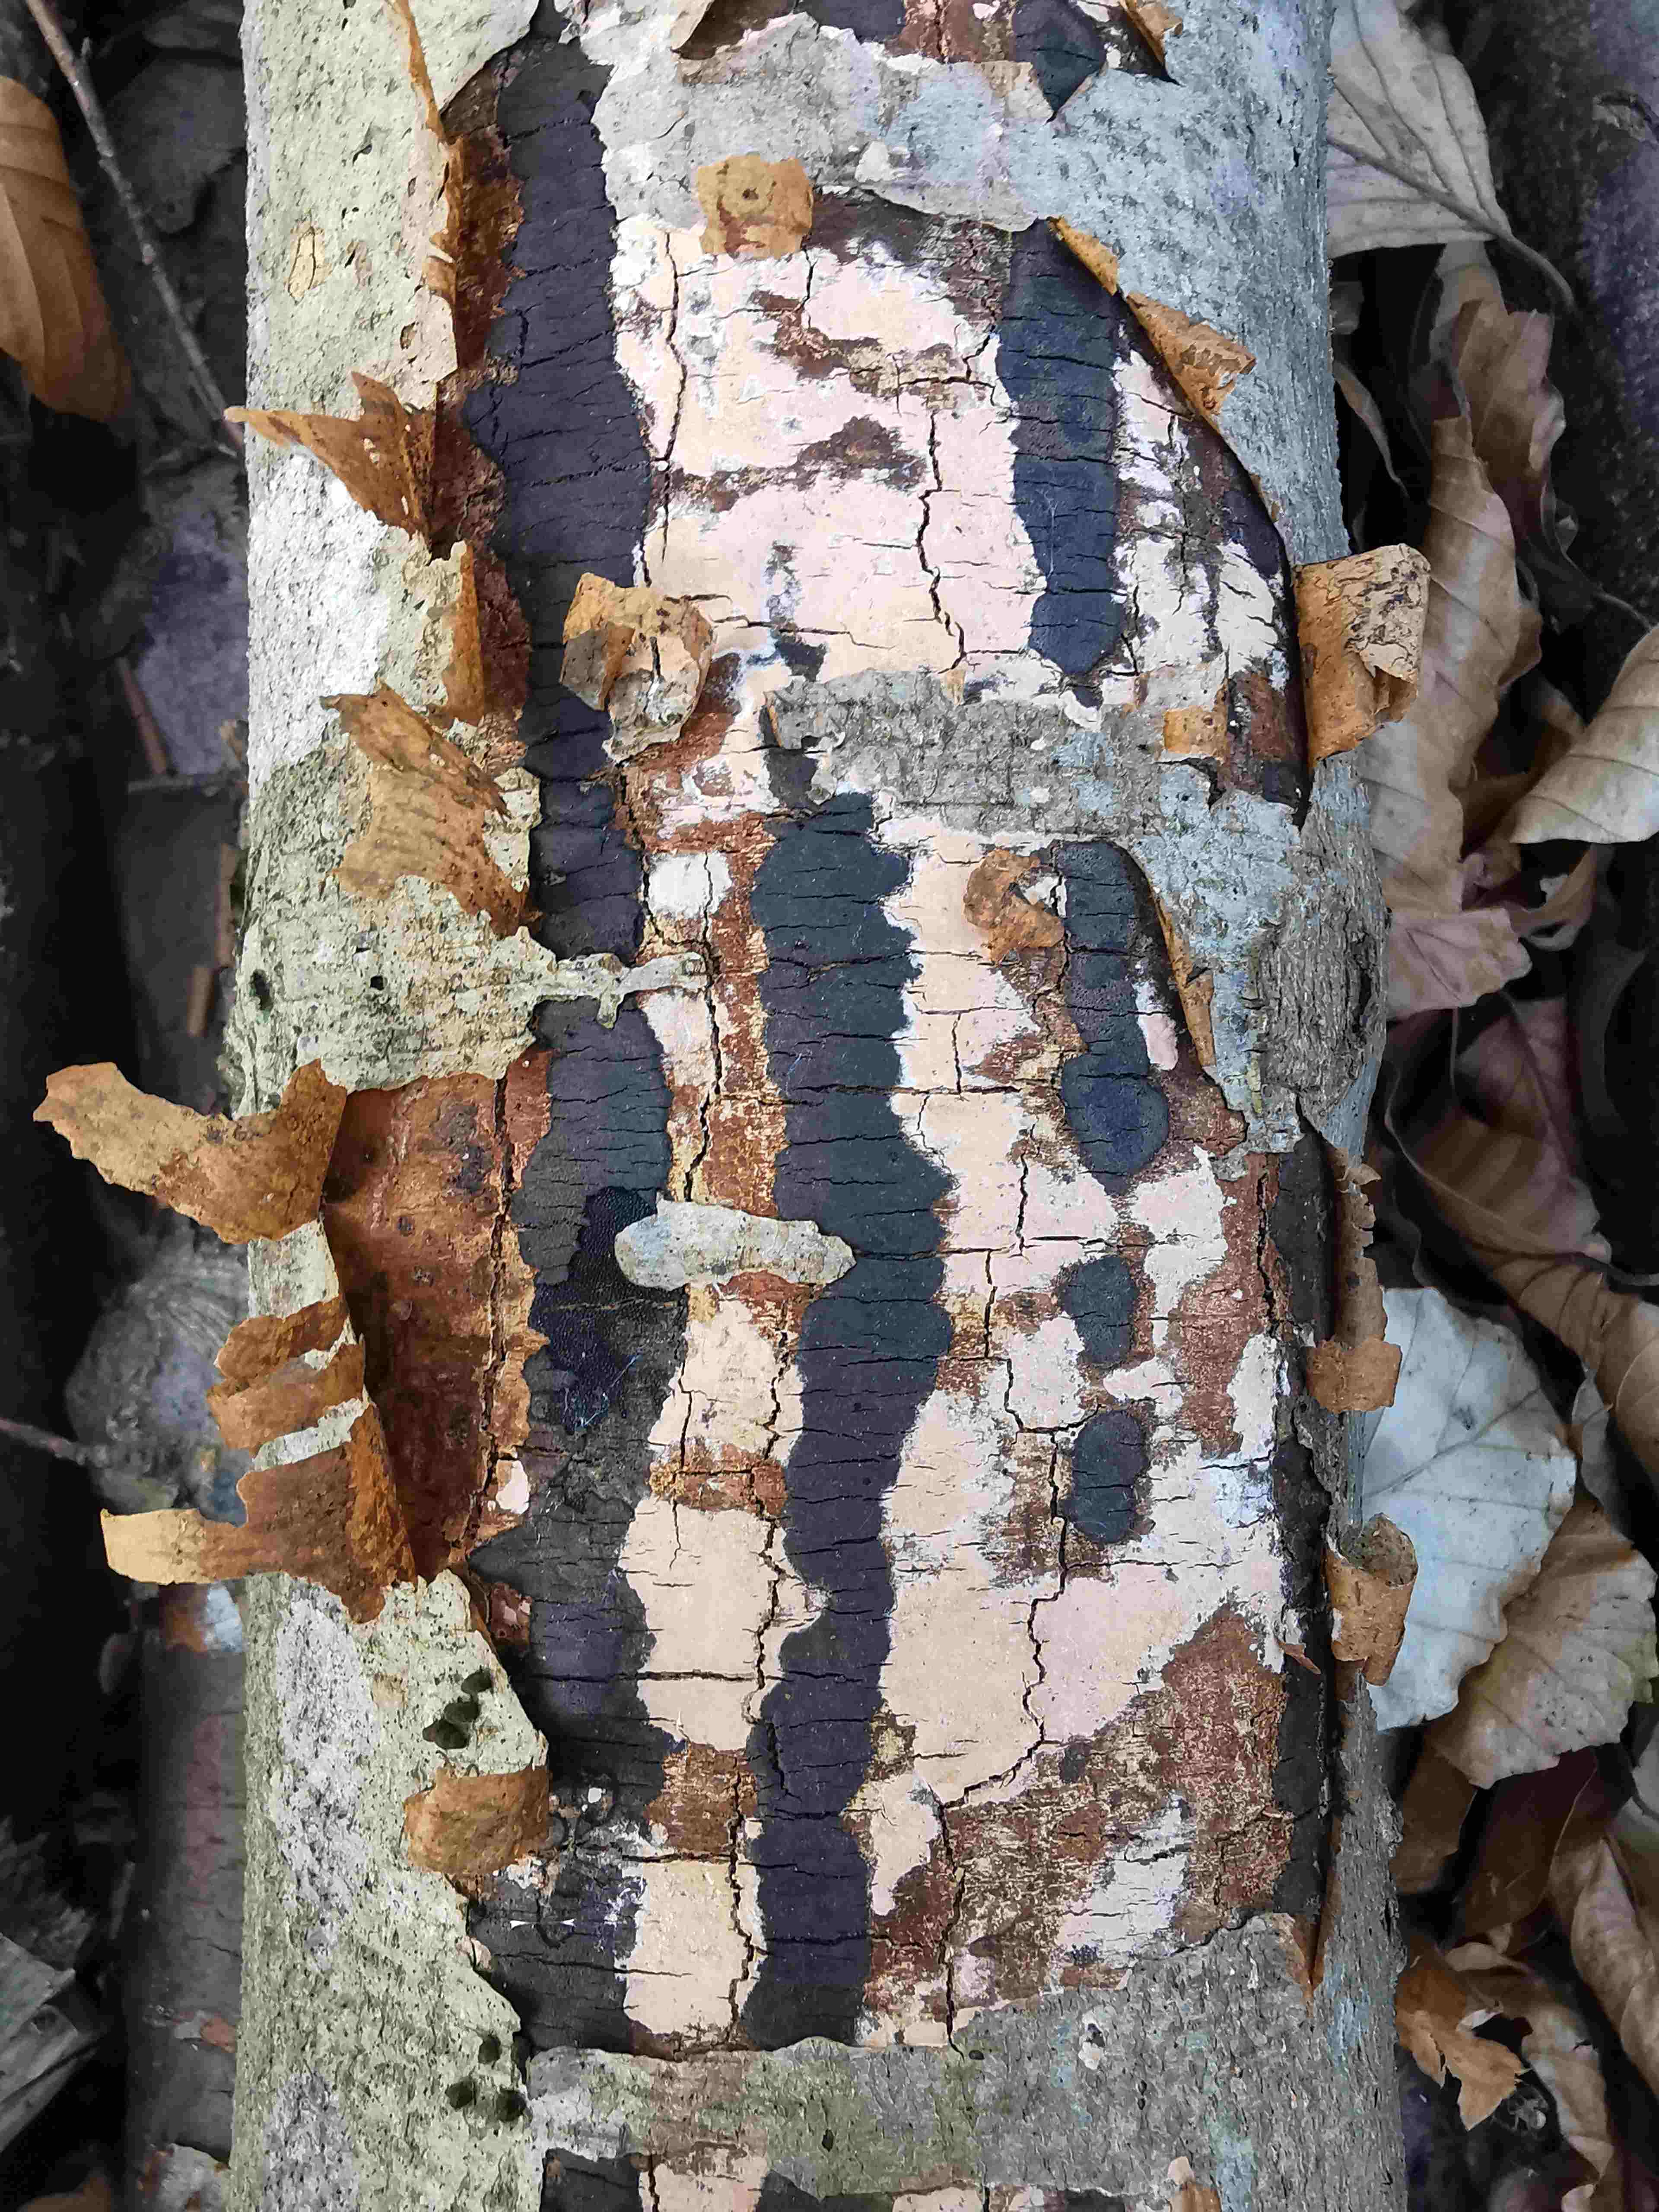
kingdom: Fungi
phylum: Basidiomycota
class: Agaricomycetes
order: Russulales
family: Peniophoraceae
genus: Peniophora
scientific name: Peniophora incarnata
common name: laksefarvet voksskind
